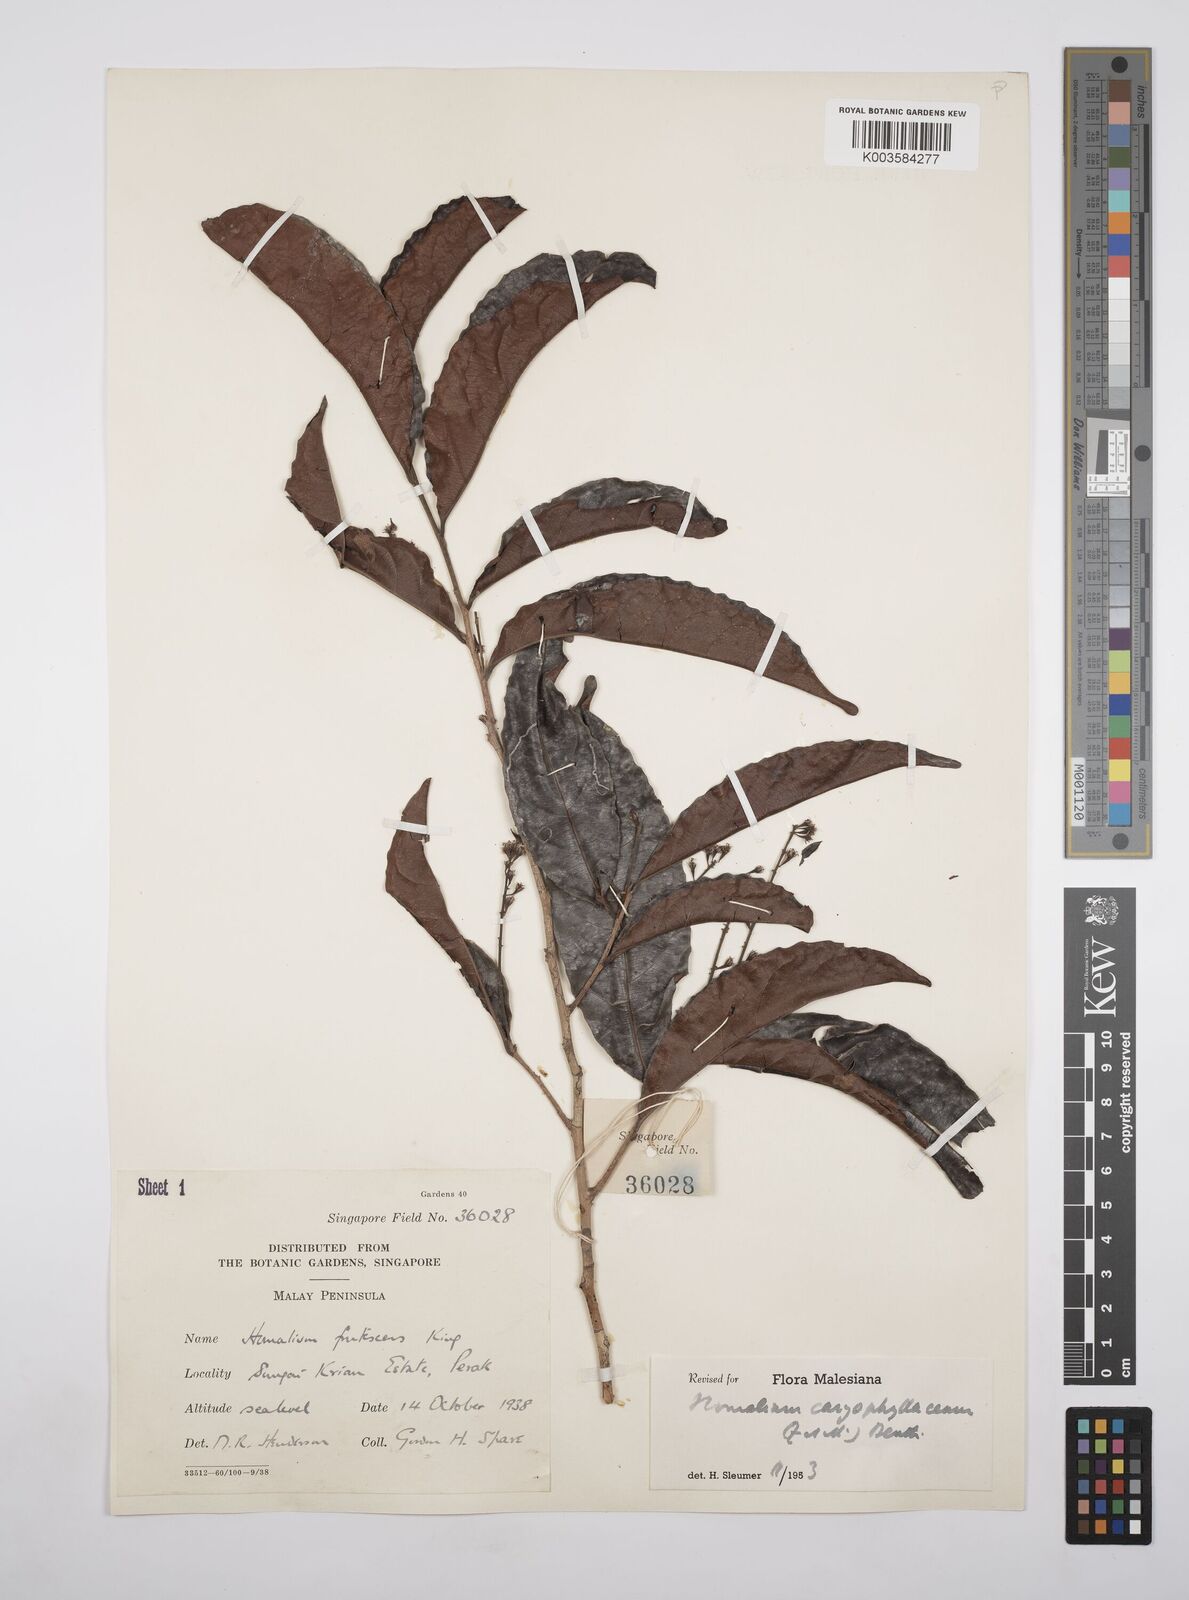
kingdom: Plantae
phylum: Tracheophyta
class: Magnoliopsida
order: Malpighiales
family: Salicaceae
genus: Homalium
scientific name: Homalium caryophyllaceum
